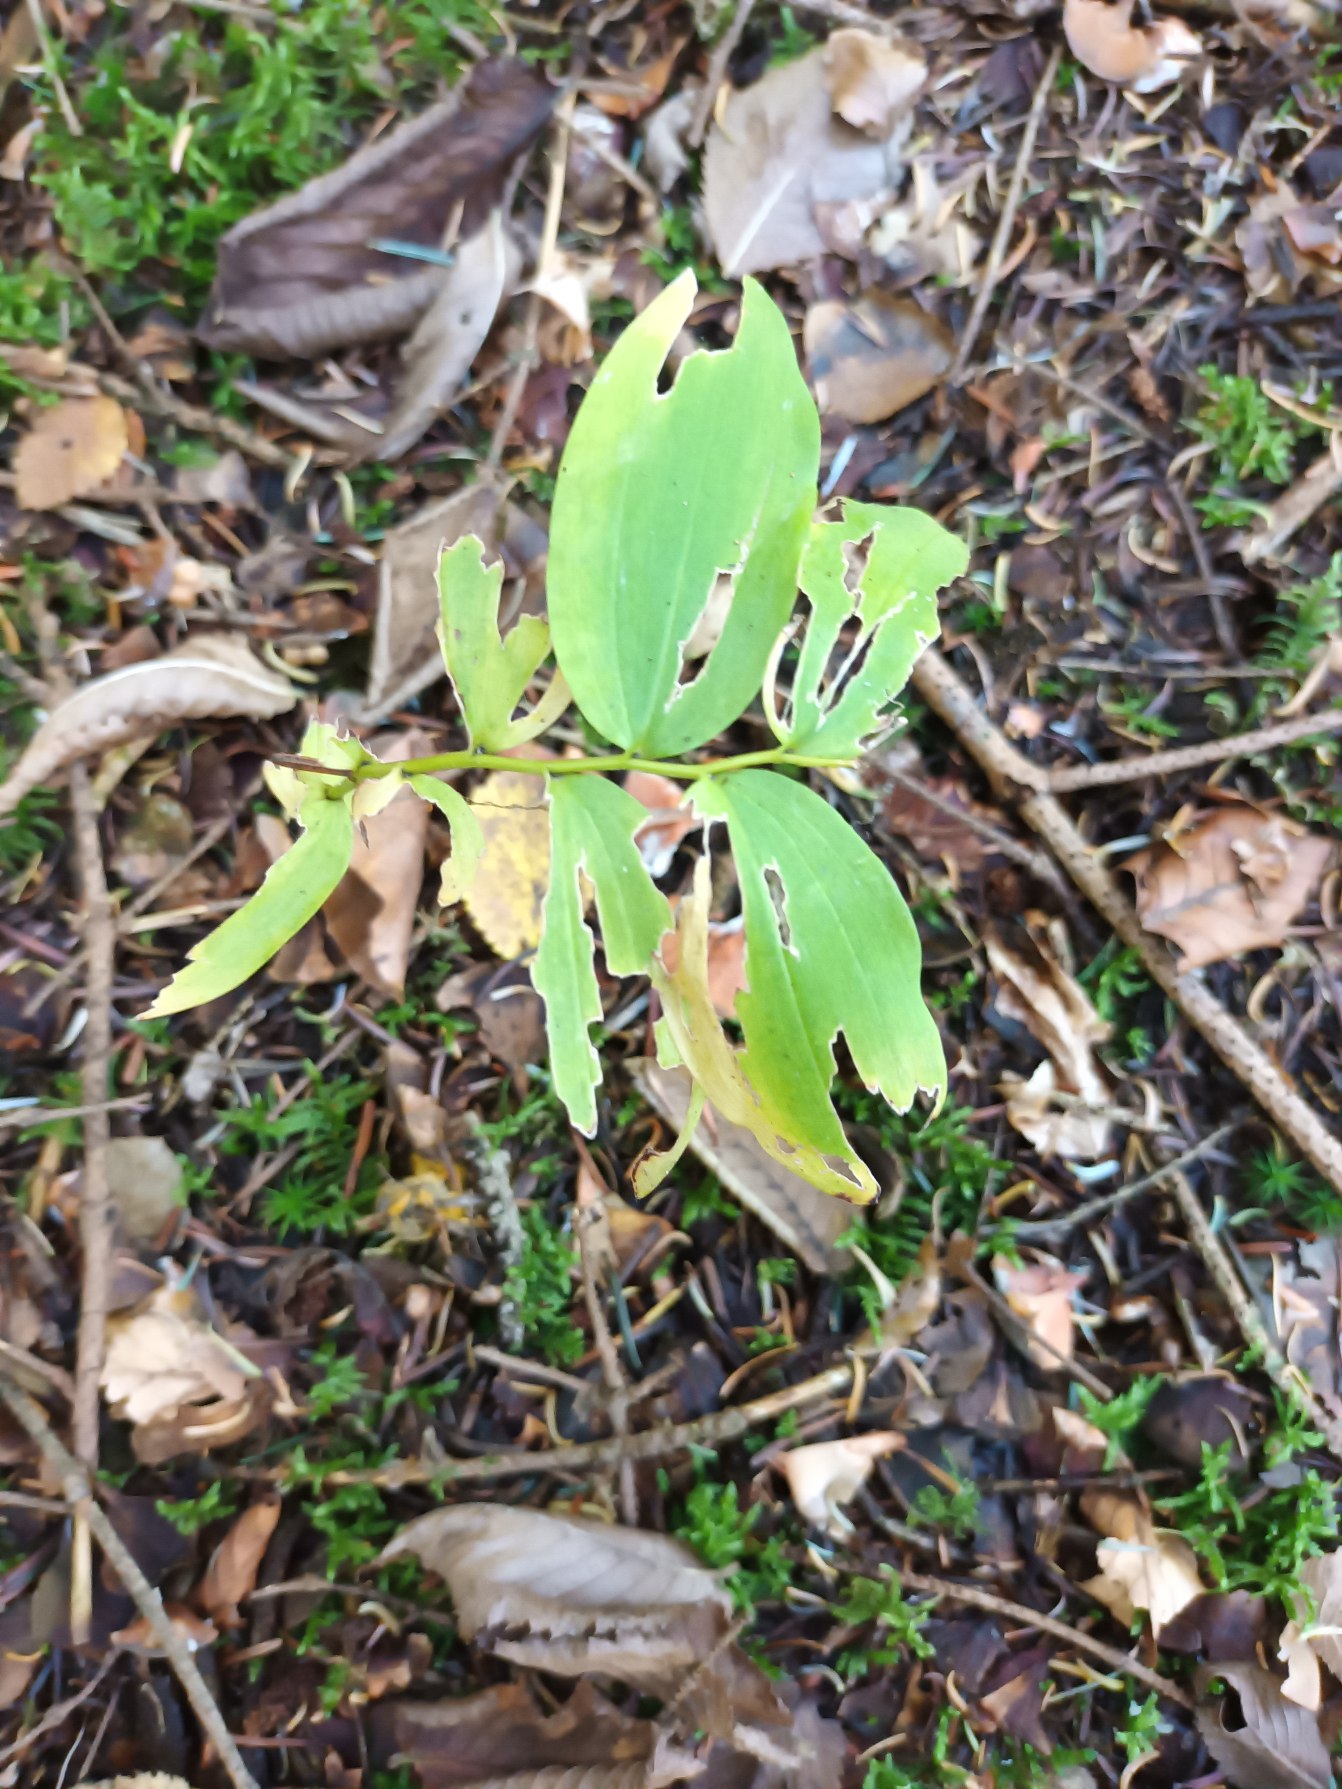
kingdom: Plantae
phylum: Tracheophyta
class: Liliopsida
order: Asparagales
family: Asparagaceae
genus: Polygonatum
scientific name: Polygonatum multiflorum
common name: Stor konval
